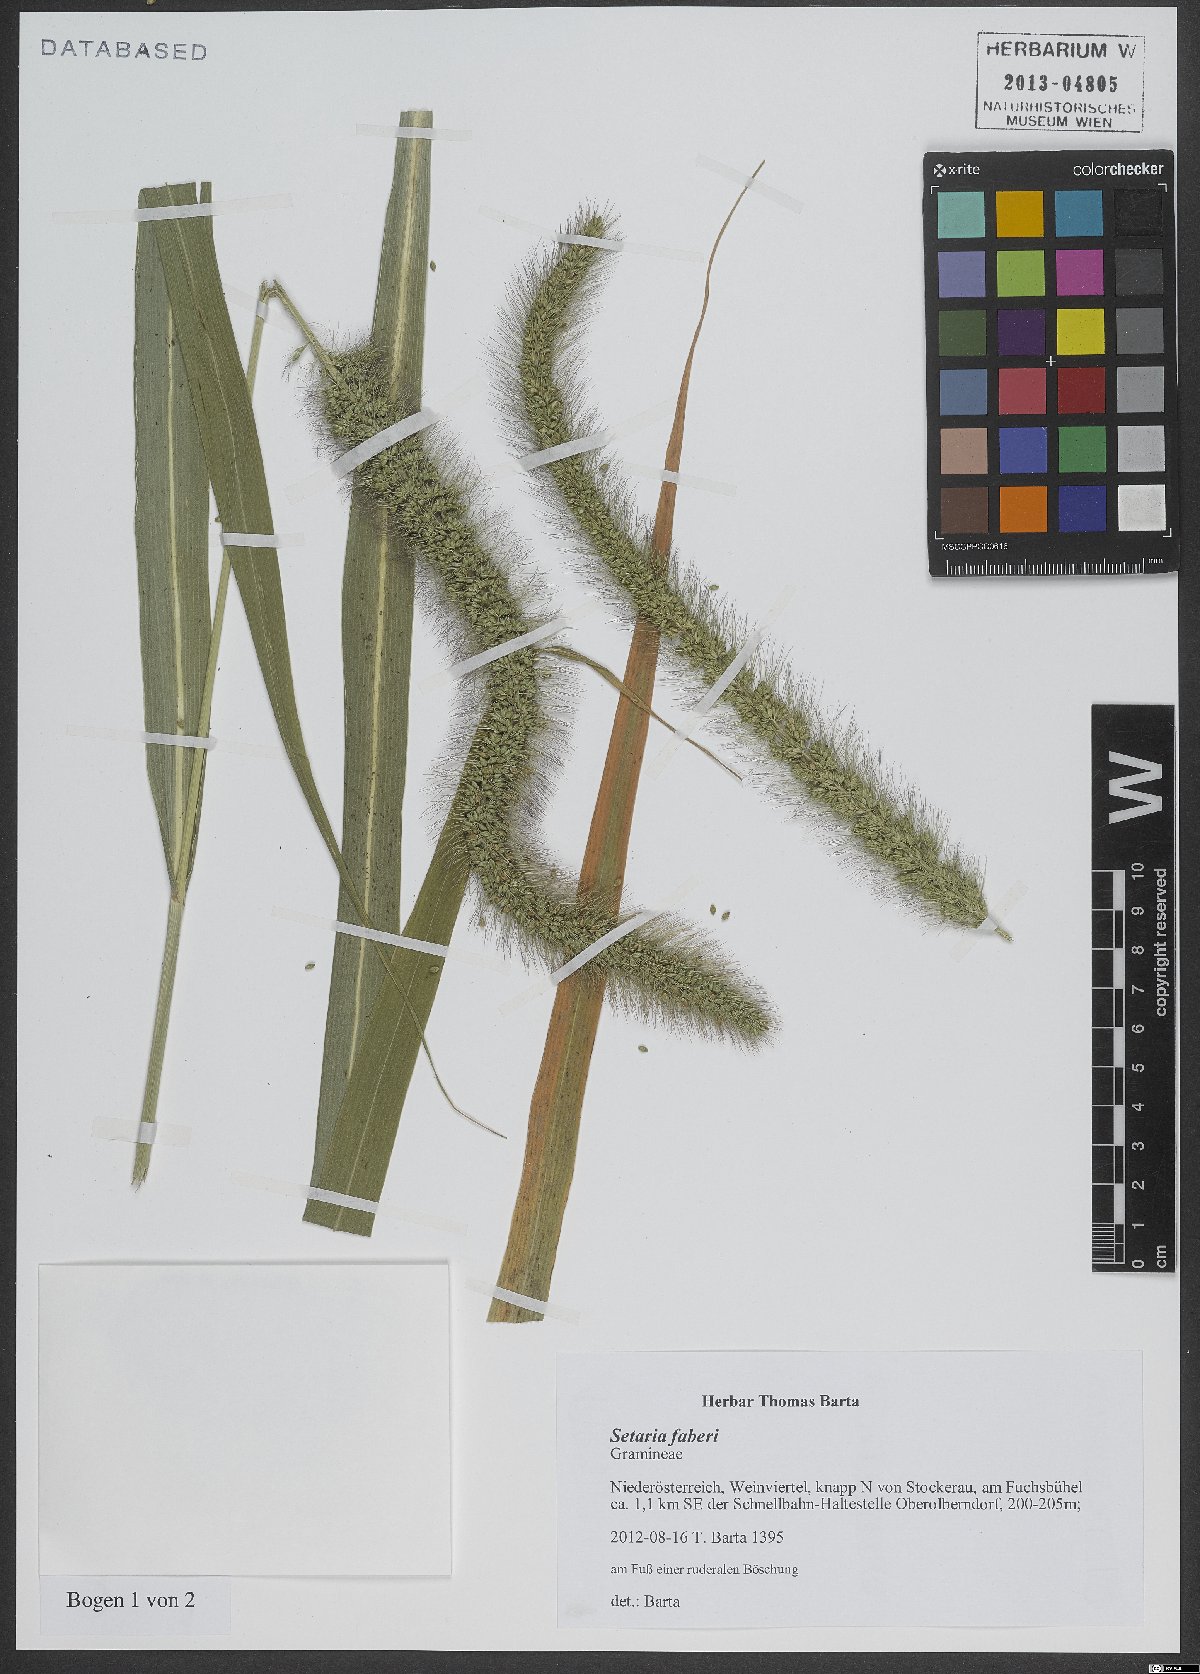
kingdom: Plantae
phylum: Tracheophyta
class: Liliopsida
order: Poales
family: Poaceae
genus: Setaria
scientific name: Setaria faberi
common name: Nodding bristle-grass
